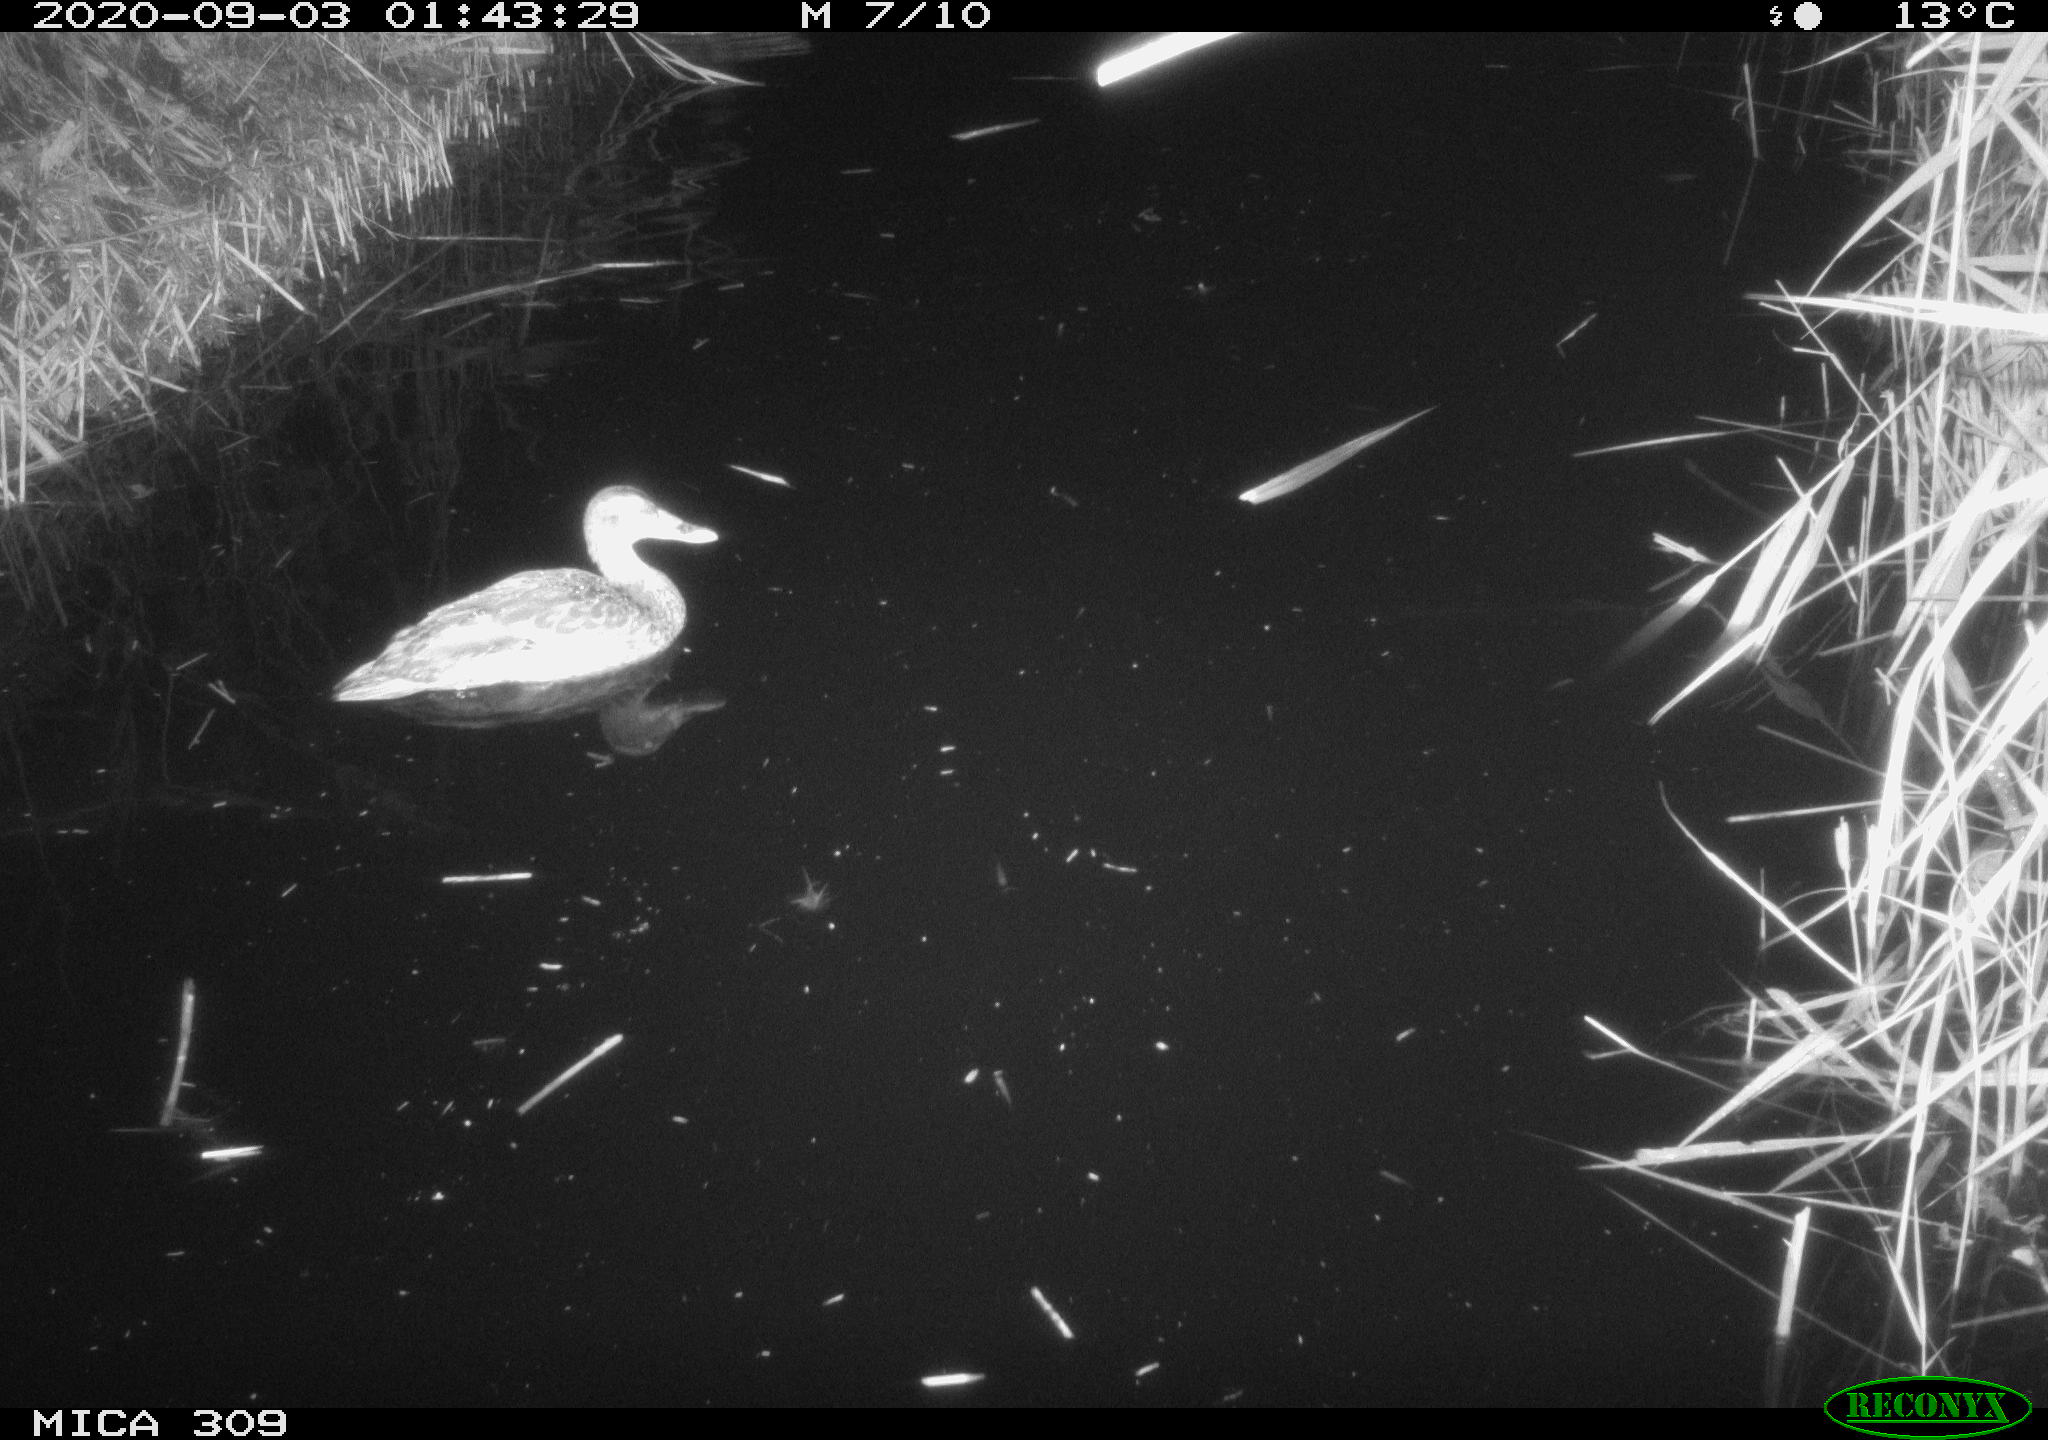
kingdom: Animalia
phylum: Chordata
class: Aves
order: Anseriformes
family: Anatidae
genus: Anas
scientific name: Anas platyrhynchos
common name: Mallard
